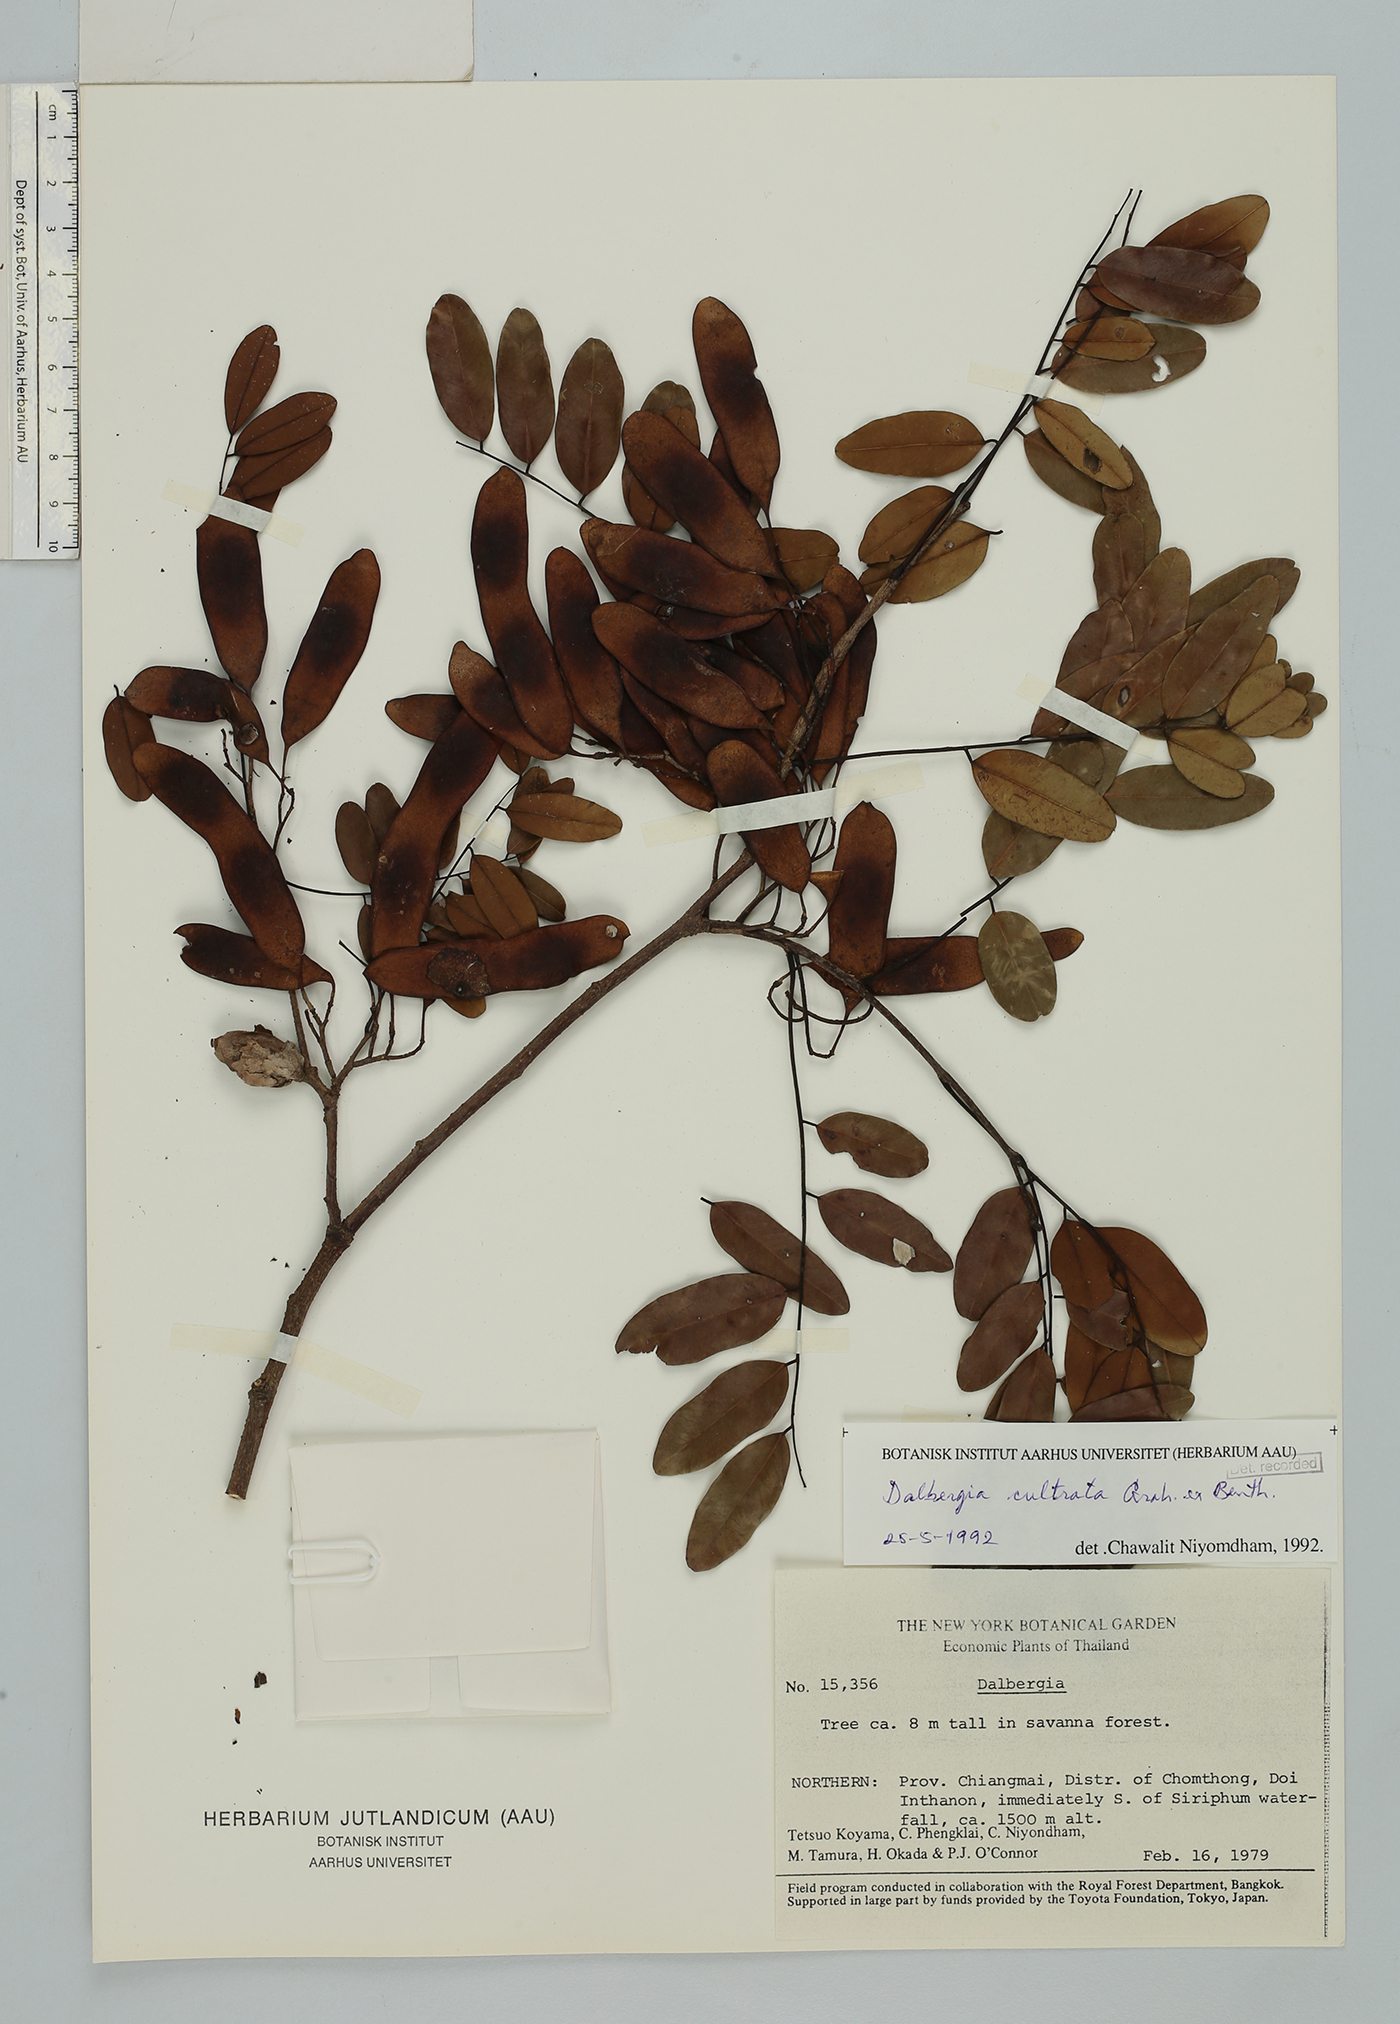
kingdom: Plantae
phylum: Tracheophyta
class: Magnoliopsida
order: Fabales
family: Fabaceae
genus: Dalbergia
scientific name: Dalbergia cultrata
